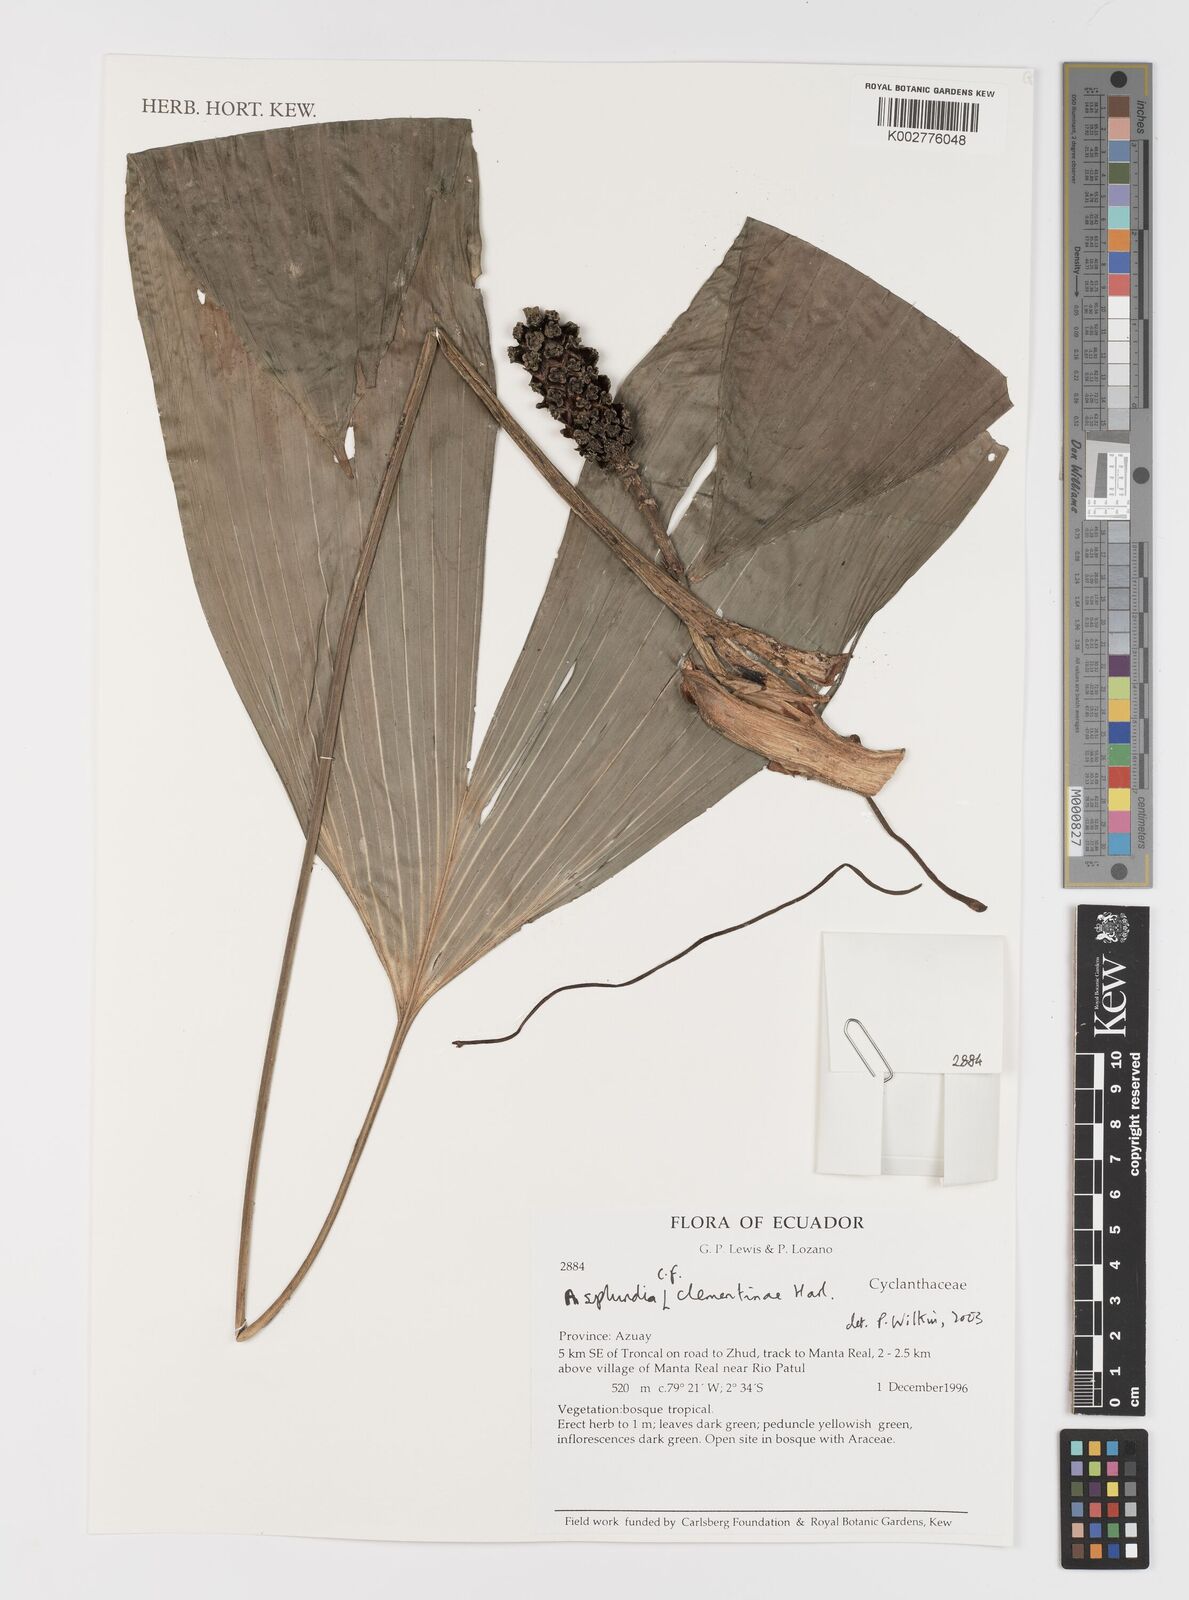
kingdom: Plantae
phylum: Tracheophyta
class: Liliopsida
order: Pandanales
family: Cyclanthaceae
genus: Asplundia
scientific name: Asplundia clementinae
